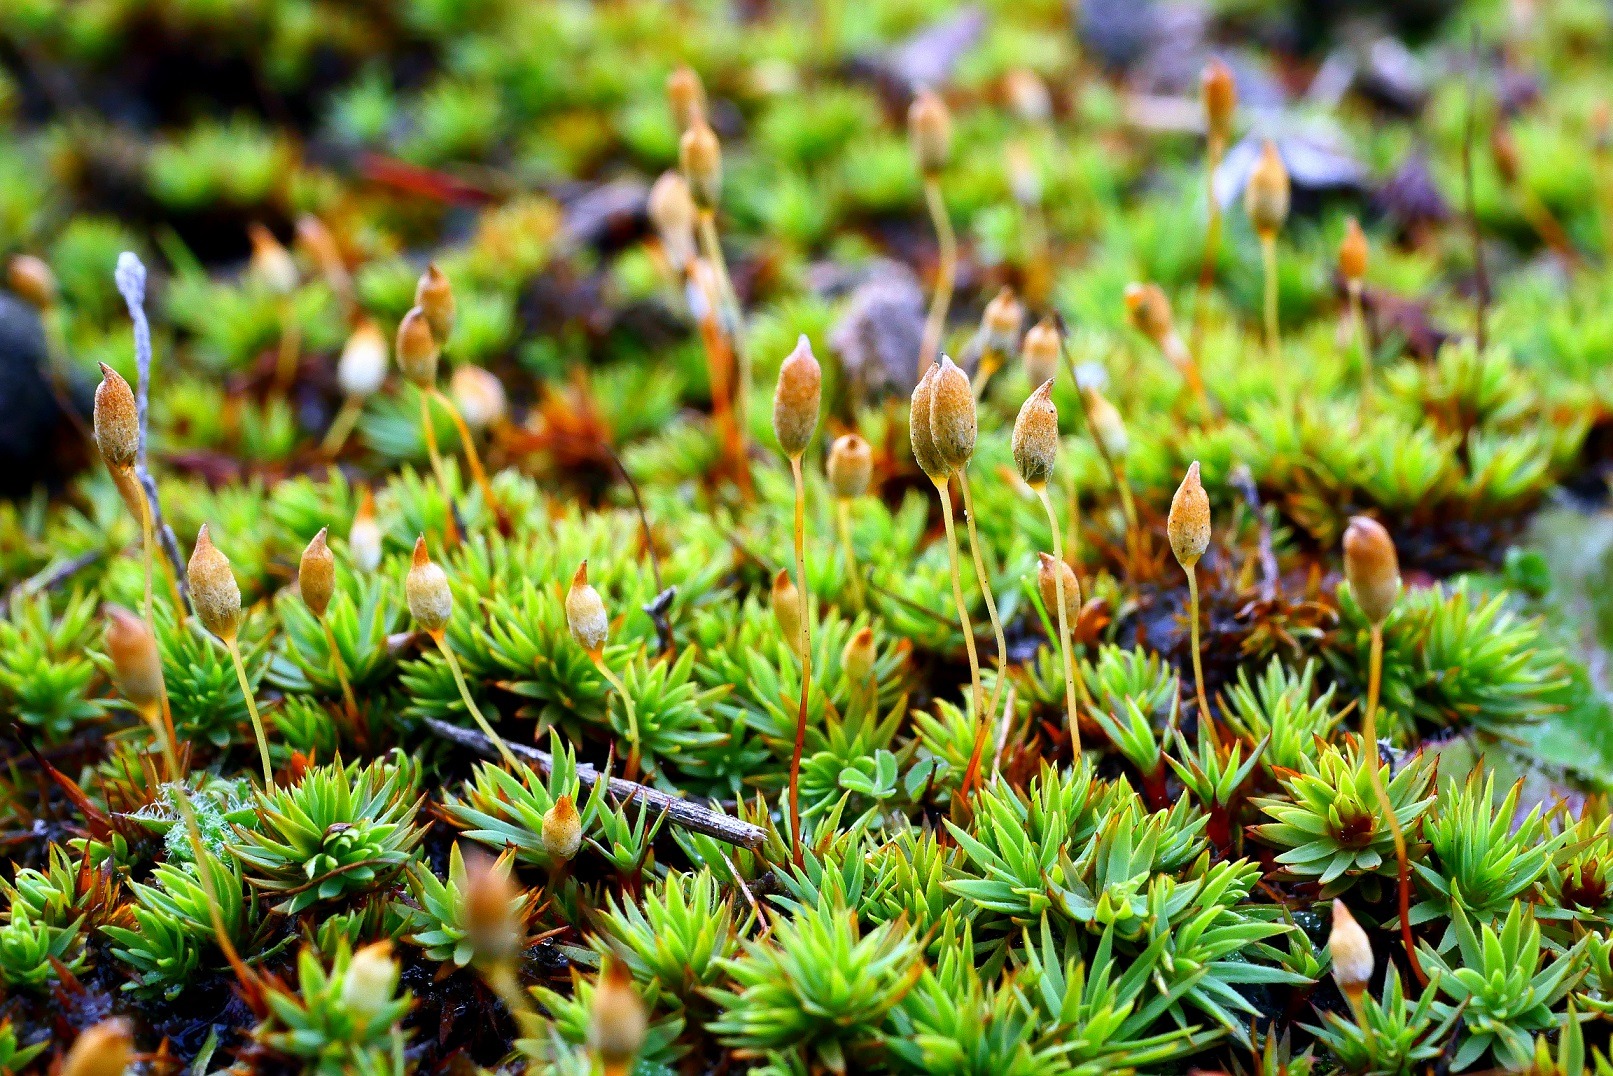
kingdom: Plantae
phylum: Bryophyta
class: Polytrichopsida
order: Polytrichales
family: Polytrichaceae
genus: Pogonatum
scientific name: Pogonatum urnigerum
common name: Stor urnekapsel
